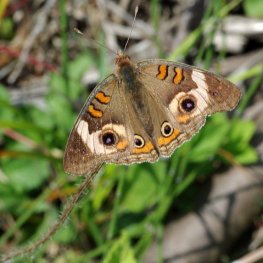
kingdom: Animalia
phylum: Arthropoda
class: Insecta
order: Lepidoptera
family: Nymphalidae
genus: Junonia
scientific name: Junonia coenia
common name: Common Buckeye
